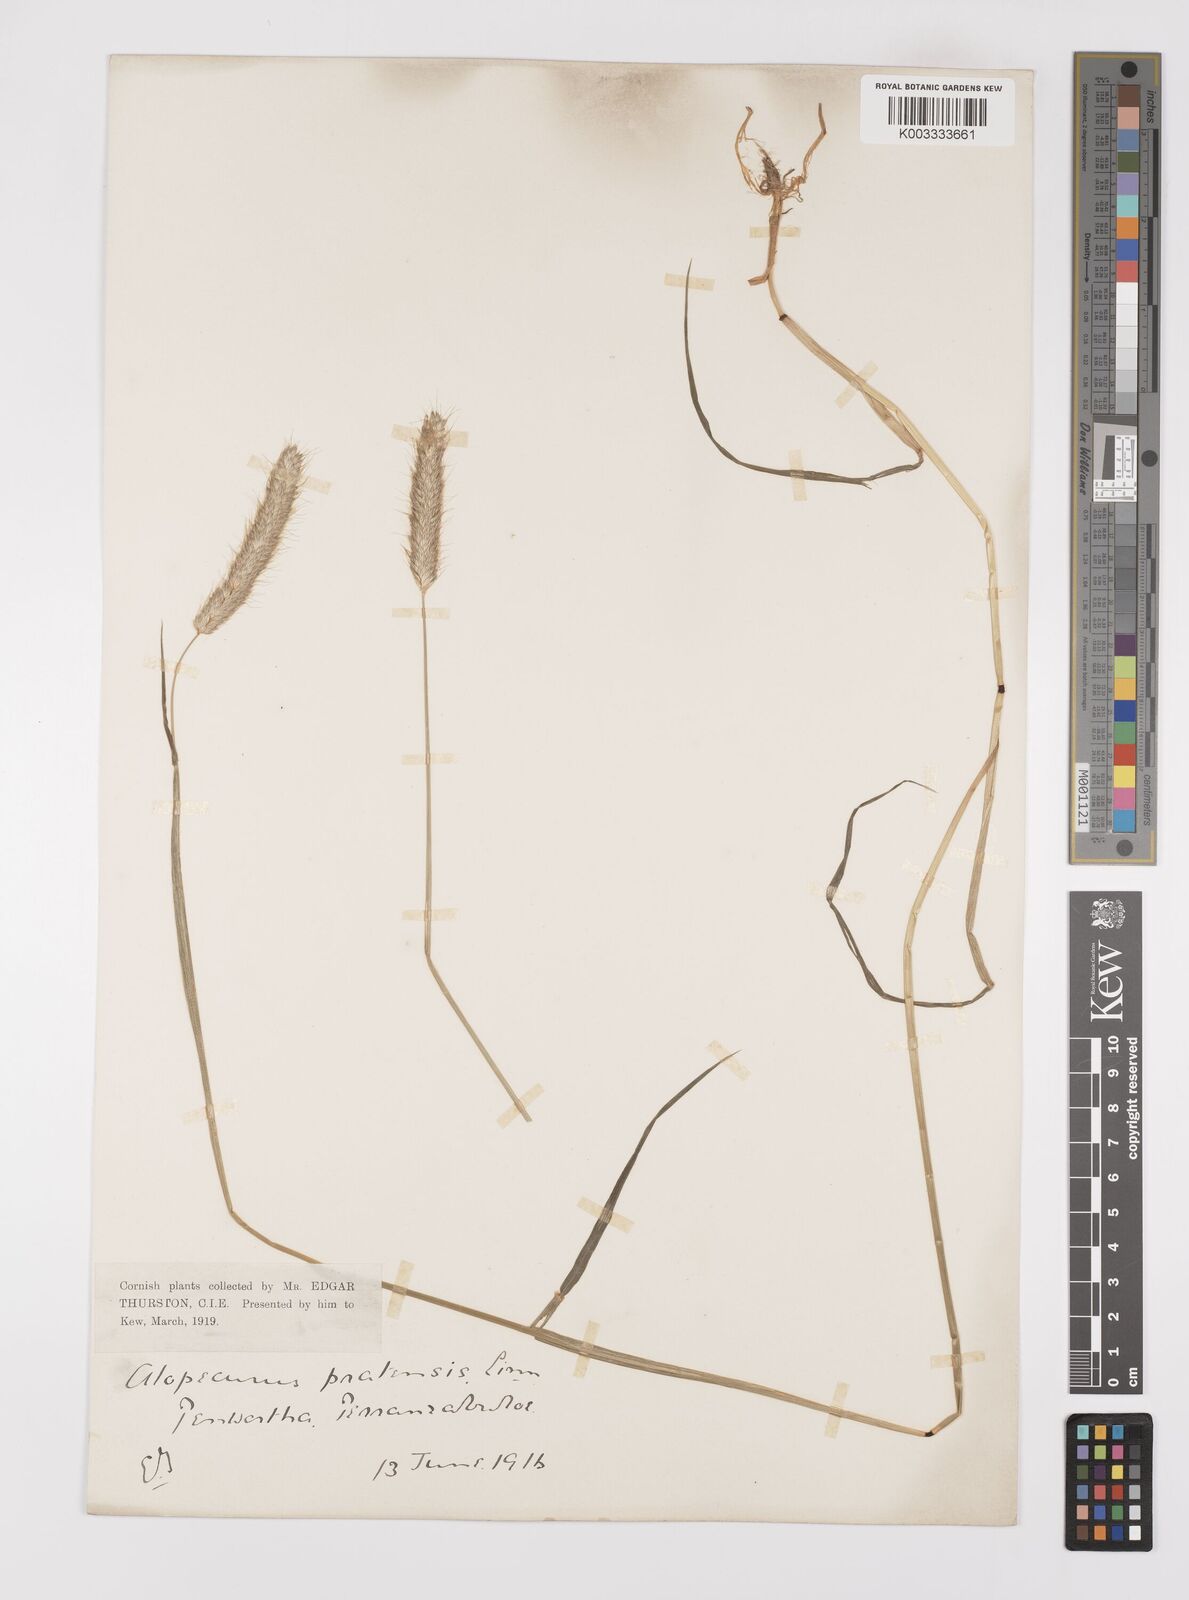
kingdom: Plantae
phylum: Tracheophyta
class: Liliopsida
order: Poales
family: Poaceae
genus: Alopecurus
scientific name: Alopecurus pratensis
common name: Meadow foxtail
